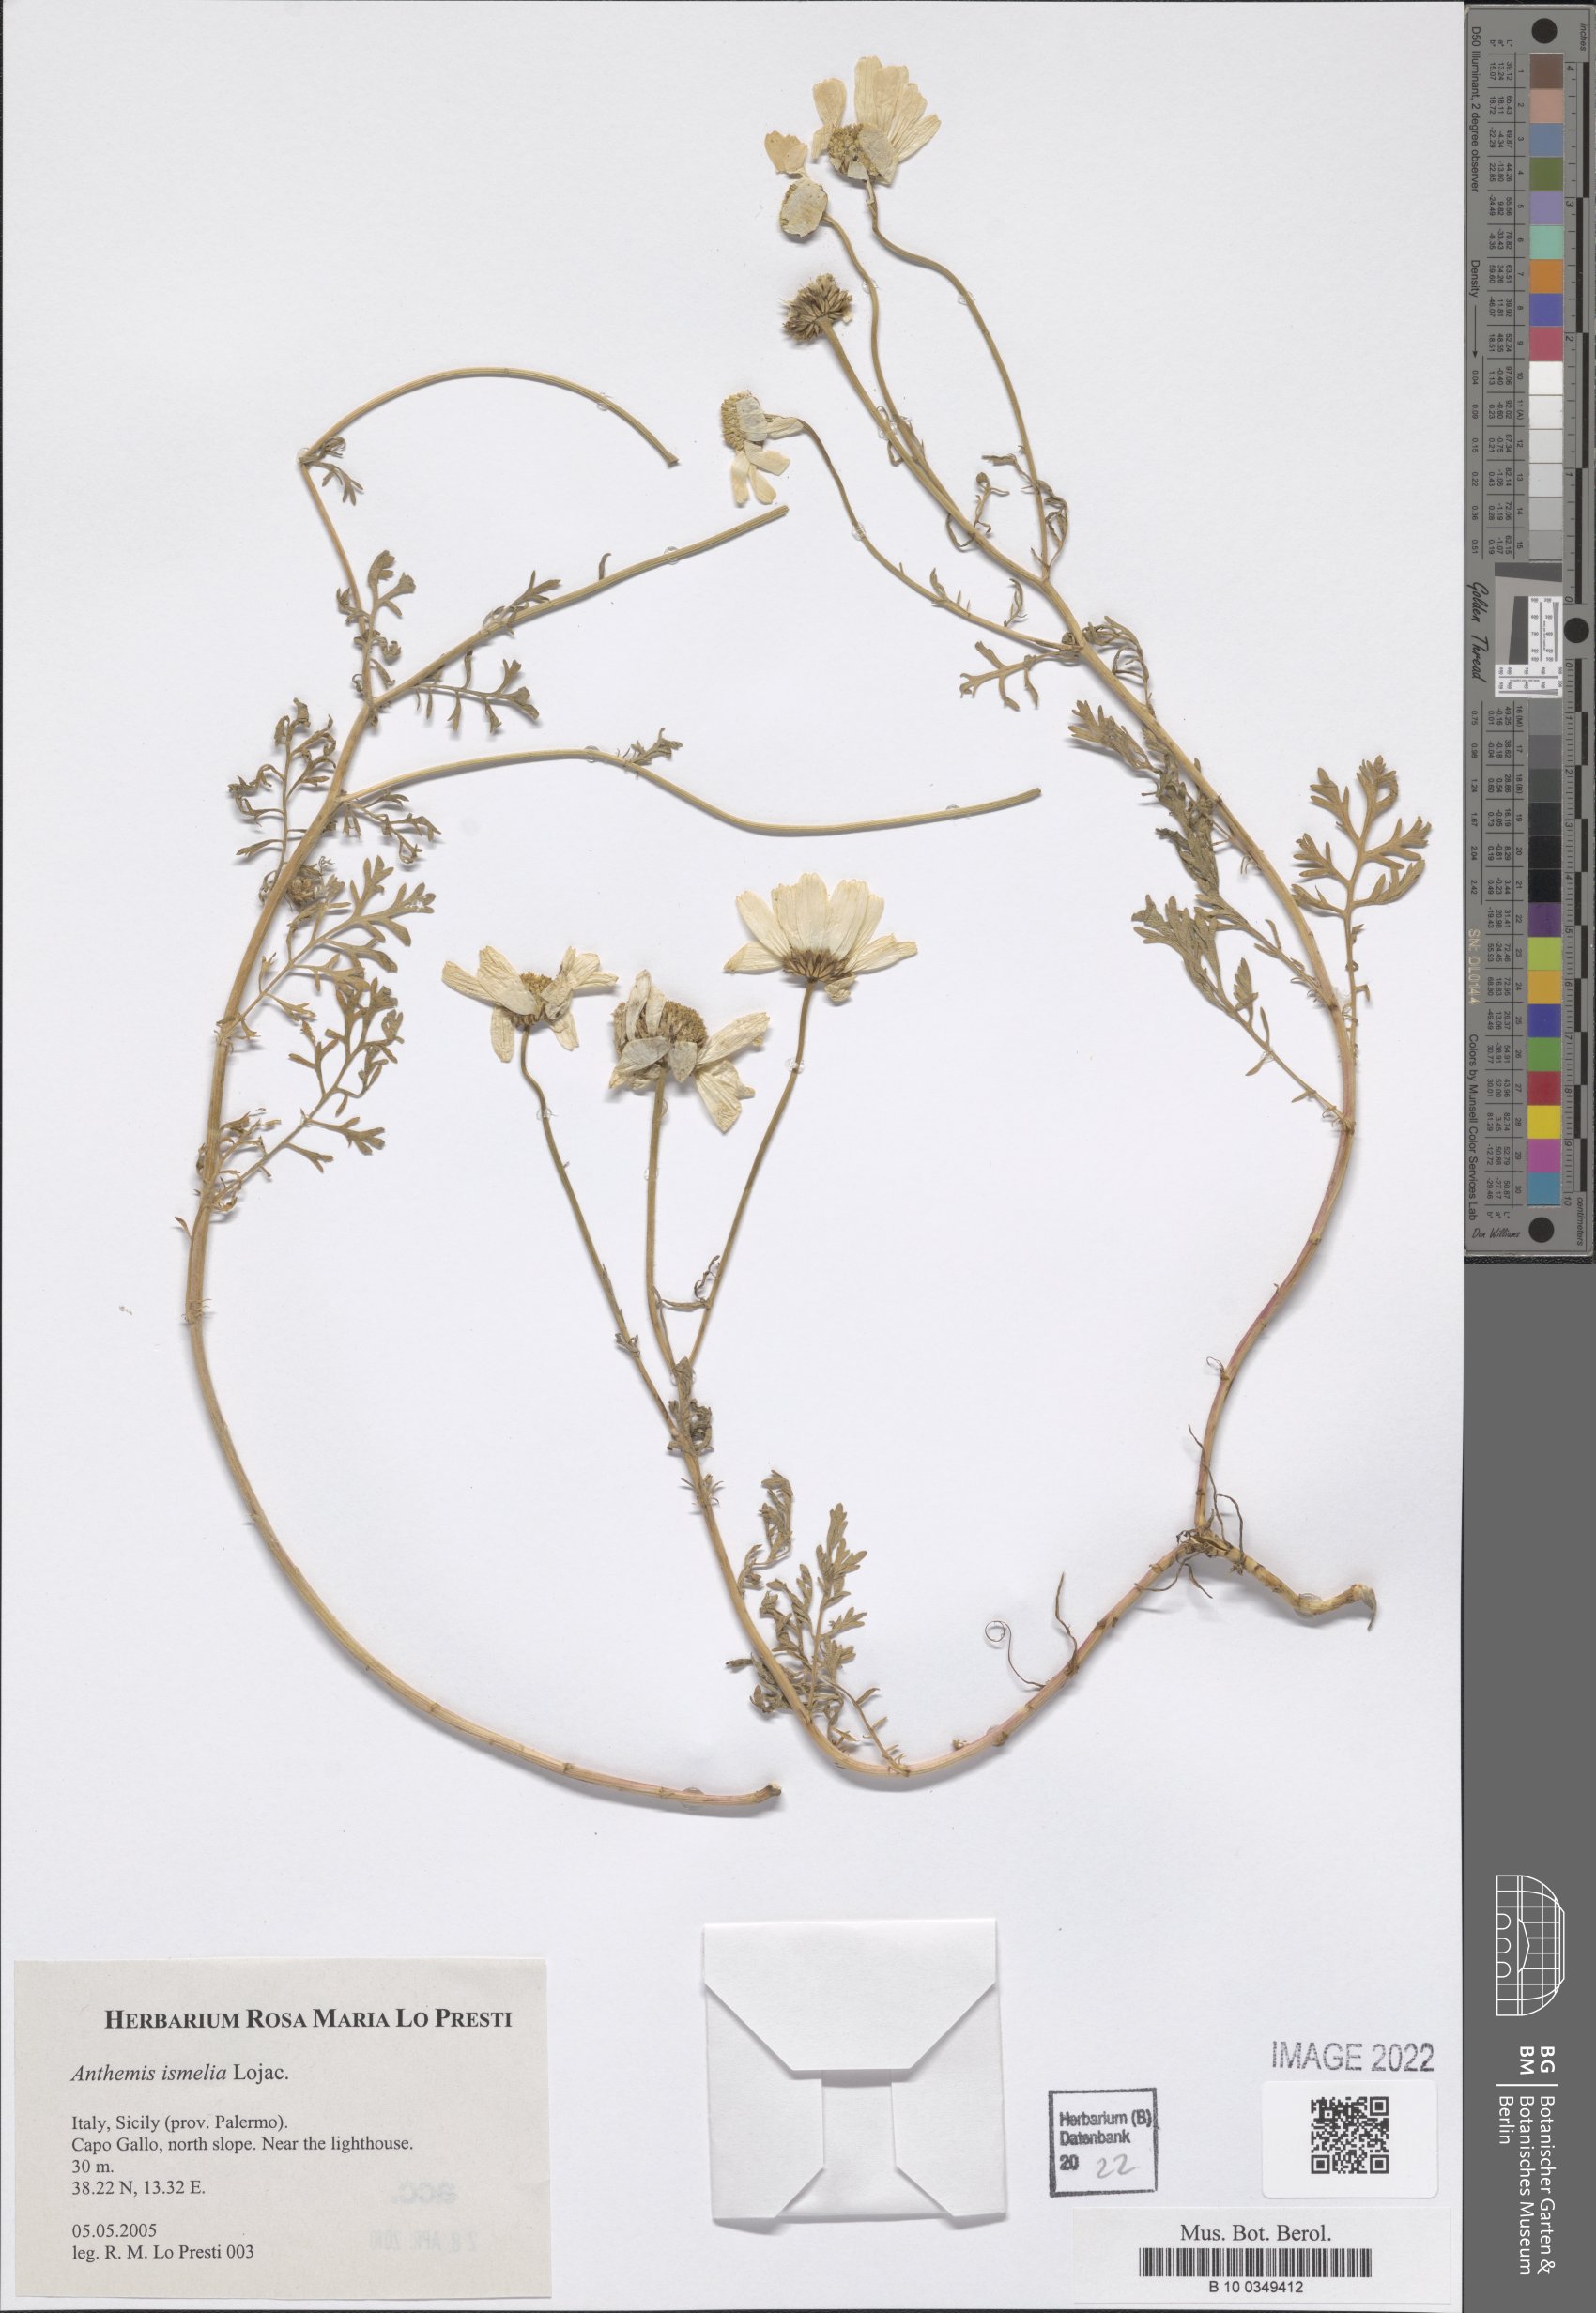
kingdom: Plantae
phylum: Tracheophyta
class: Magnoliopsida
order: Asterales
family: Asteraceae
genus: Anthemis
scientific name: Anthemis ismelia
